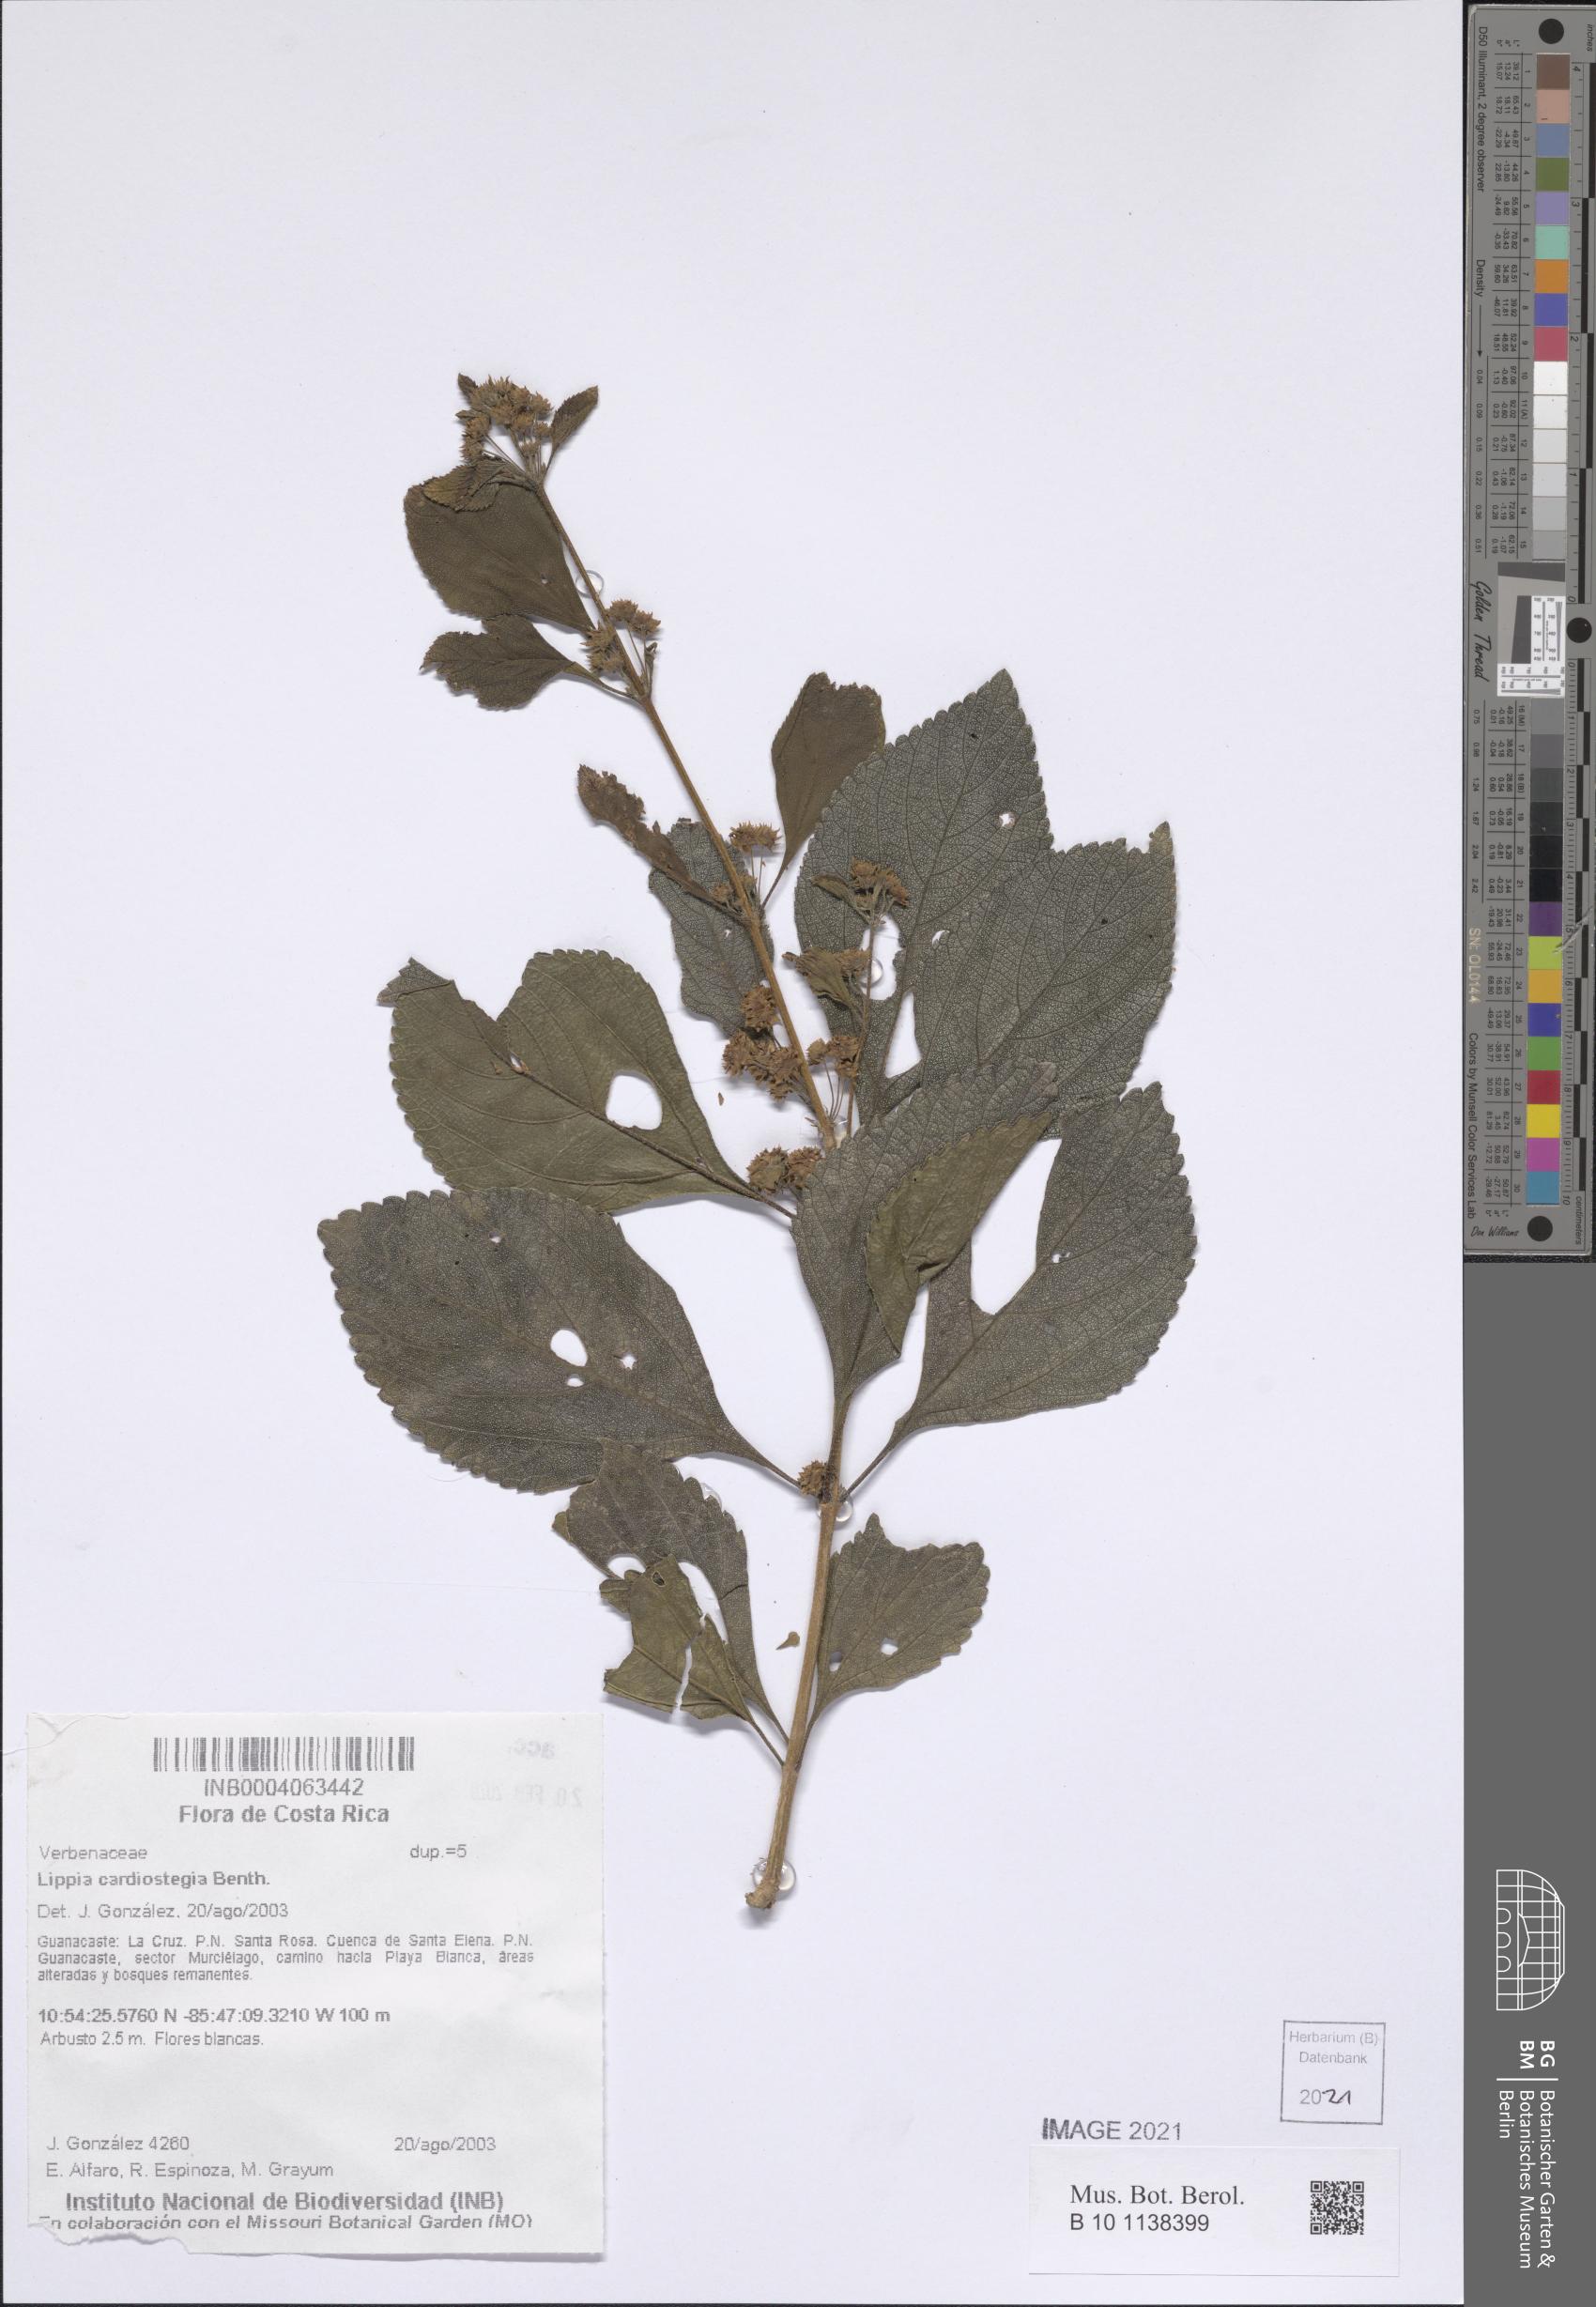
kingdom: Plantae
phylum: Tracheophyta
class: Magnoliopsida
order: Lamiales
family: Verbenaceae
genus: Lippia
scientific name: Lippia cardiostegia
